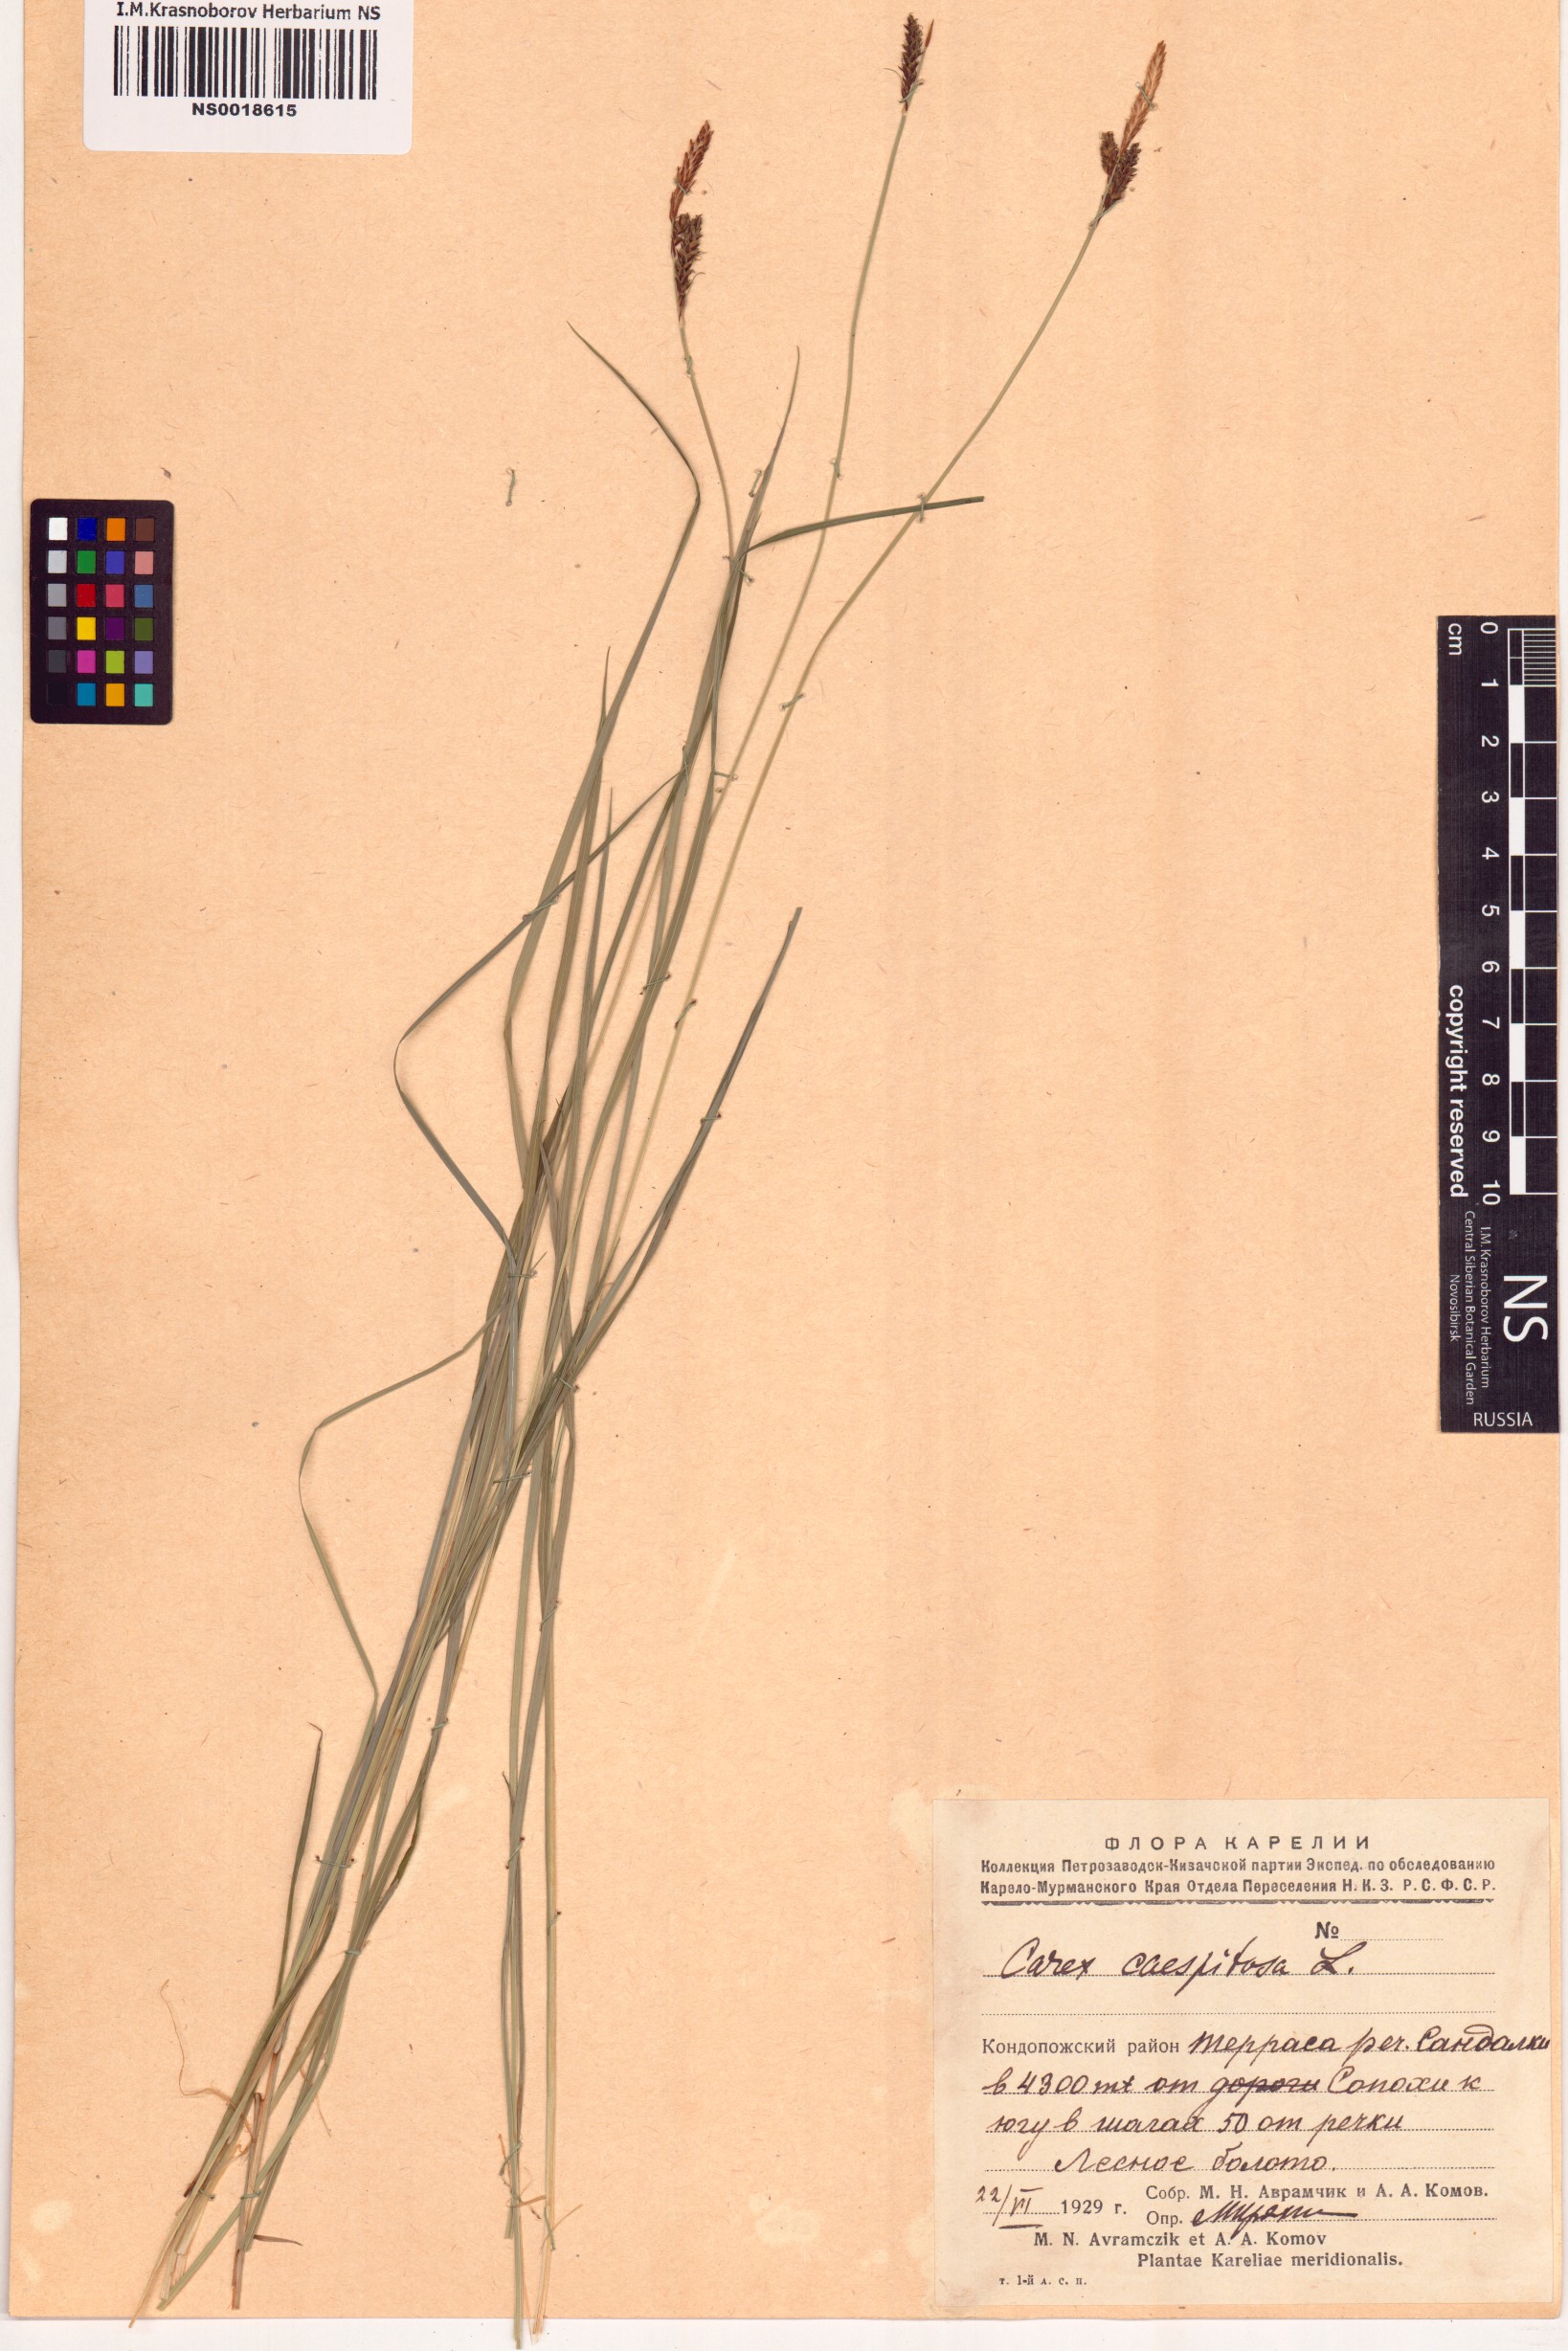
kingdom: Plantae
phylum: Tracheophyta
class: Liliopsida
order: Poales
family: Cyperaceae
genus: Carex
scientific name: Carex cespitosa
